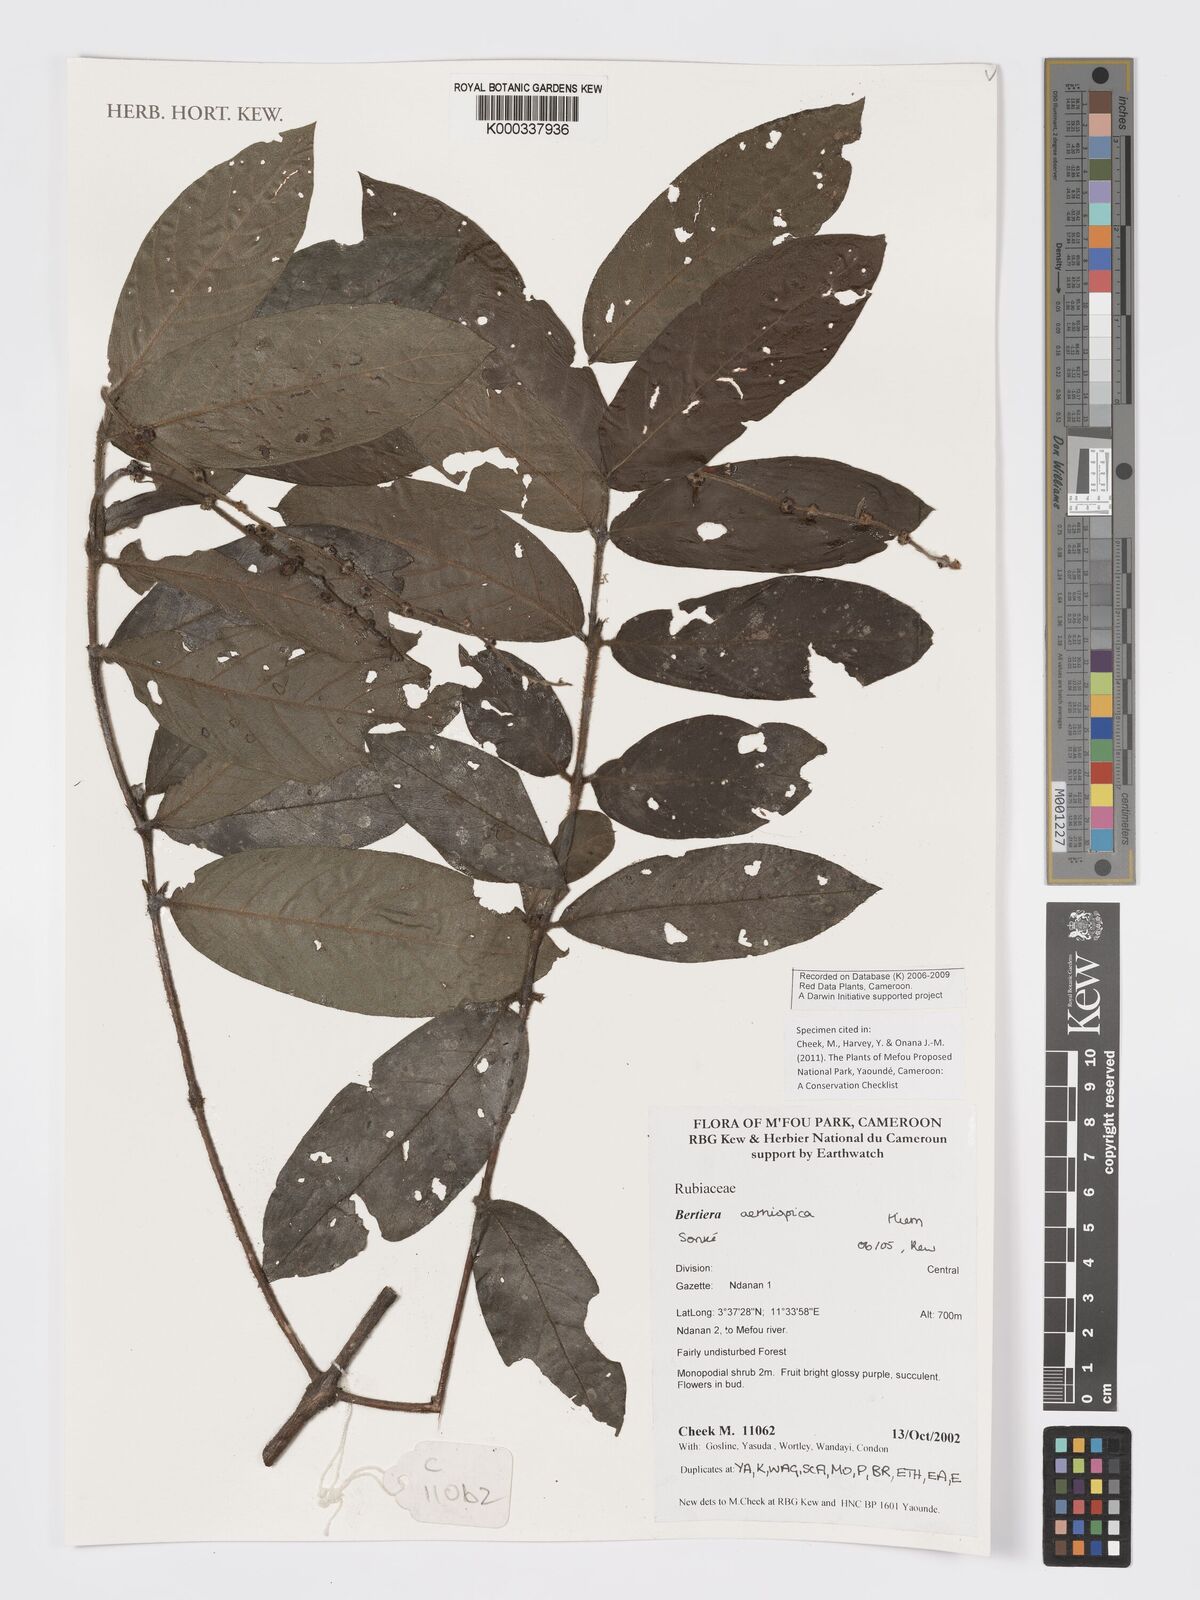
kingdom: Plantae
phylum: Tracheophyta
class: Magnoliopsida
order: Gentianales
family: Rubiaceae
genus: Bertiera
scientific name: Bertiera aethiopica
